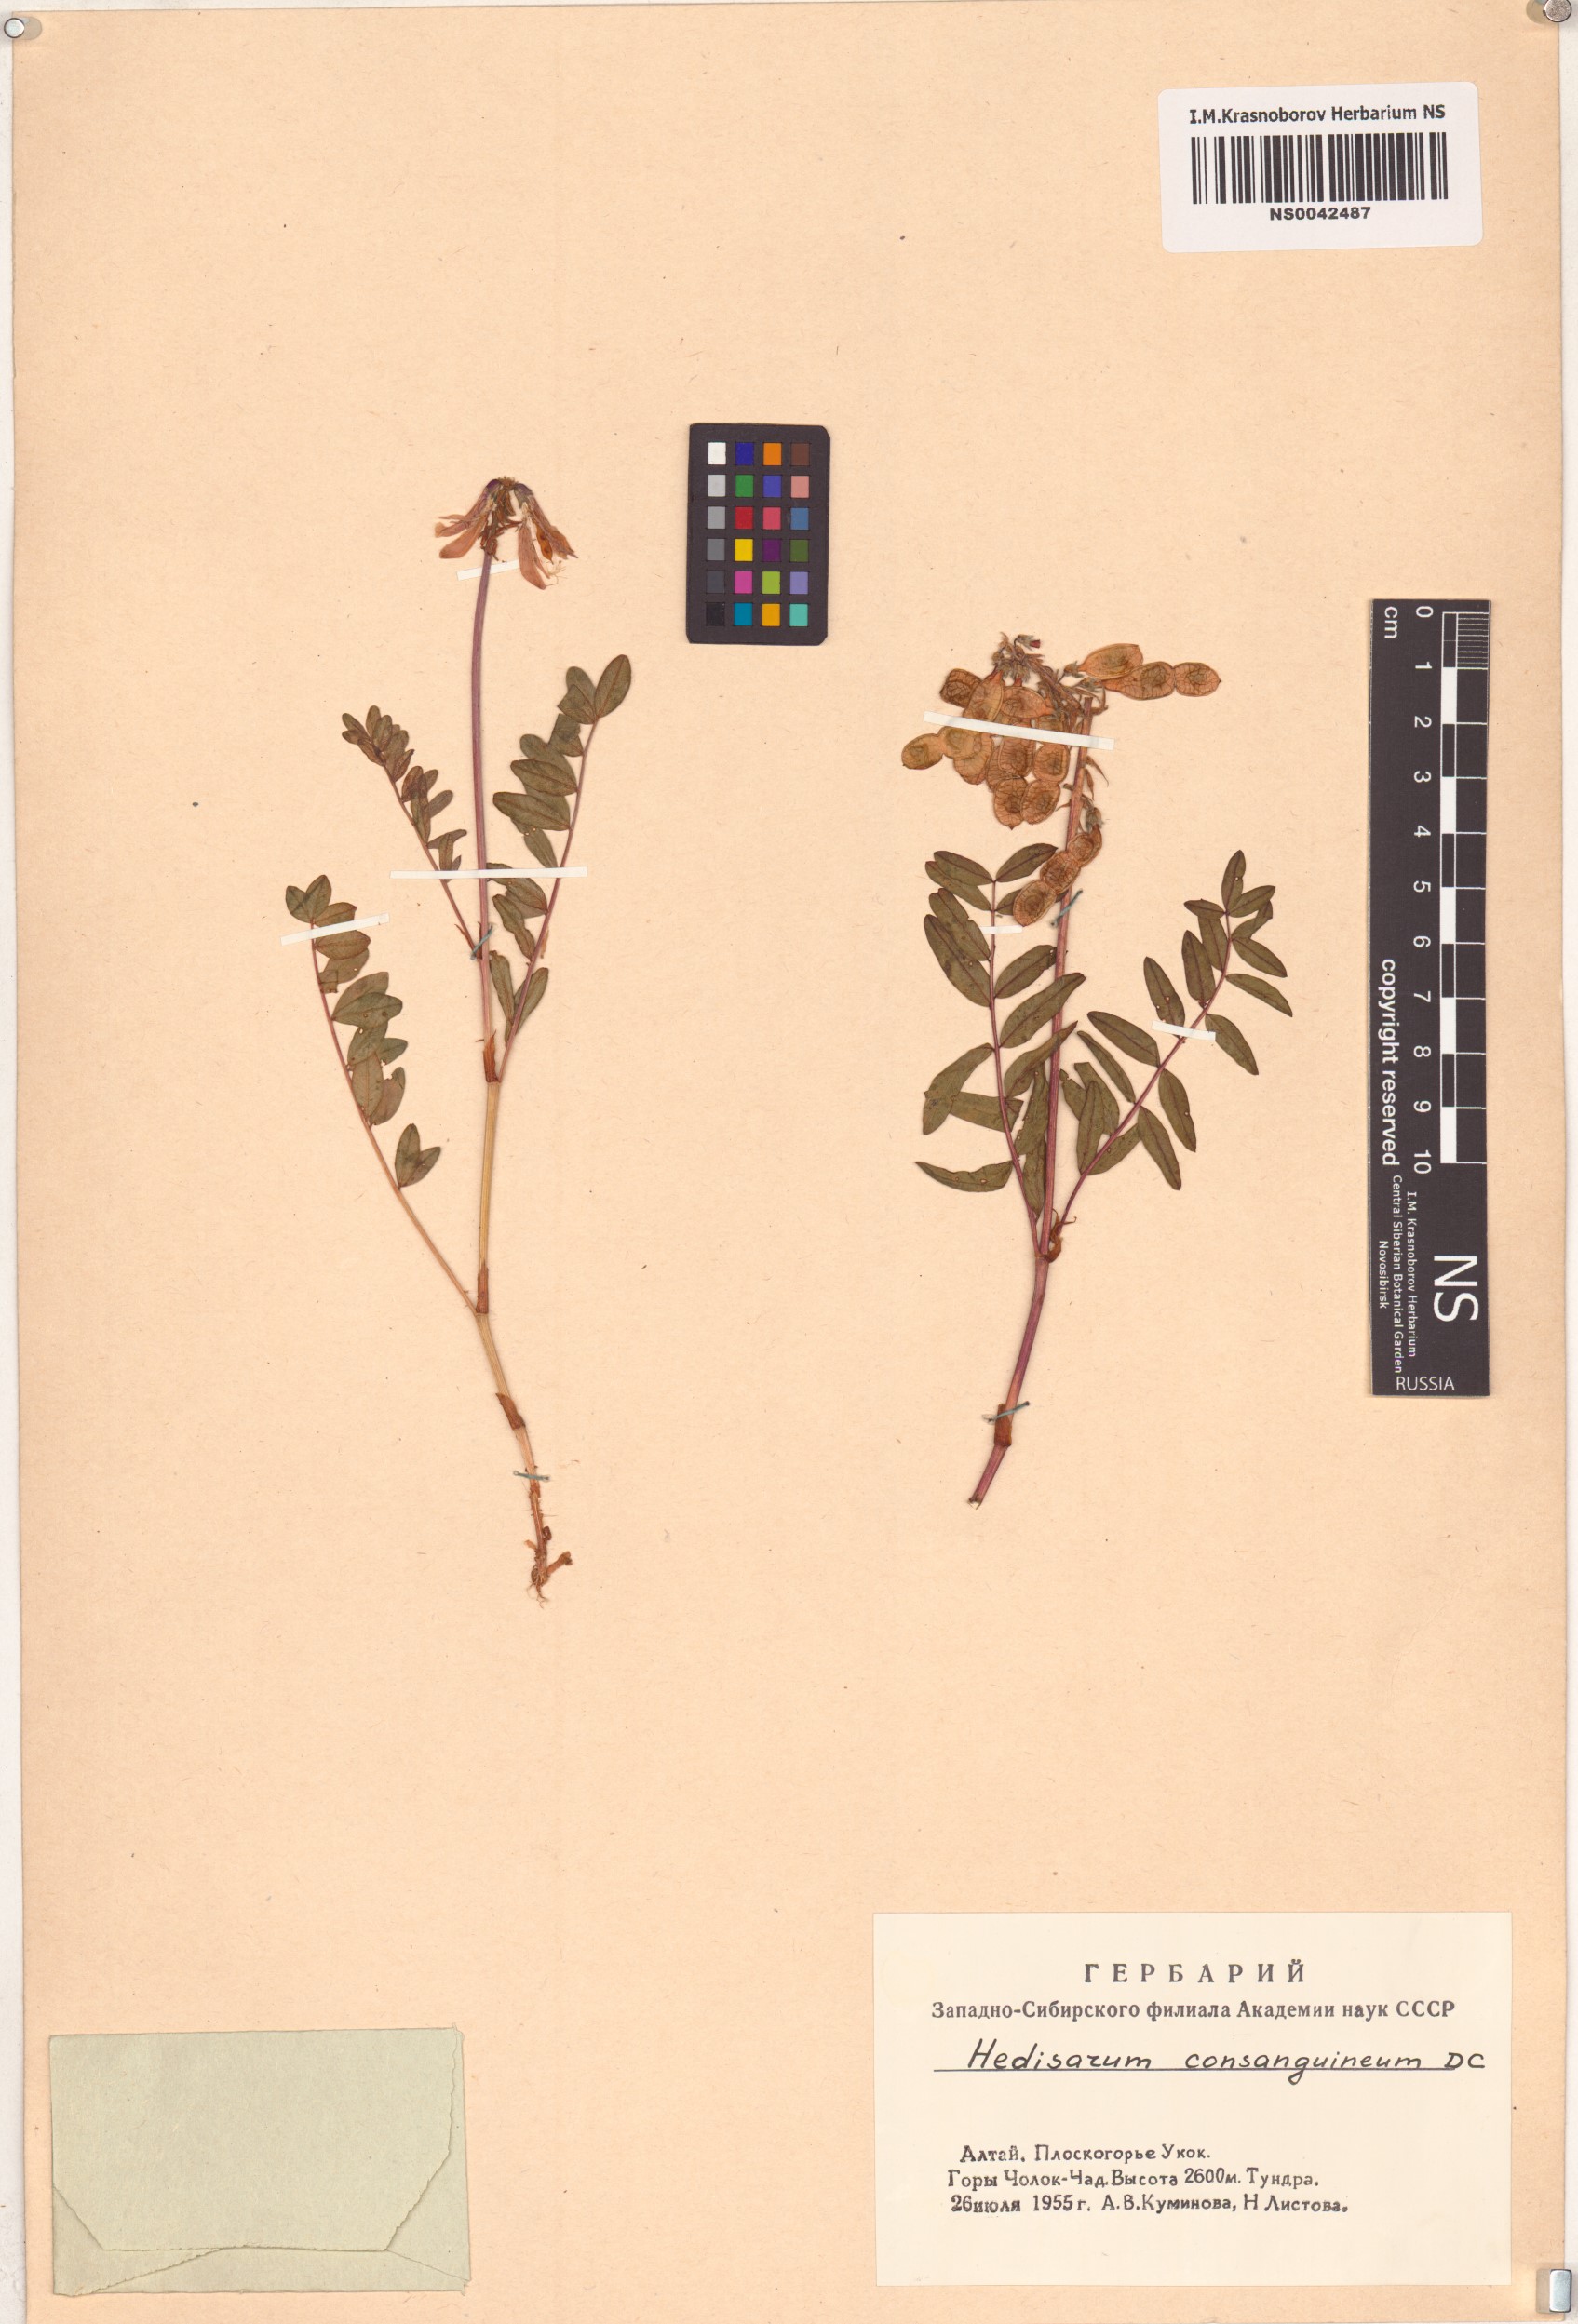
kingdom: Plantae
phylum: Tracheophyta
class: Magnoliopsida
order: Fabales
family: Fabaceae
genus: Hedysarum
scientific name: Hedysarum consanguineum
